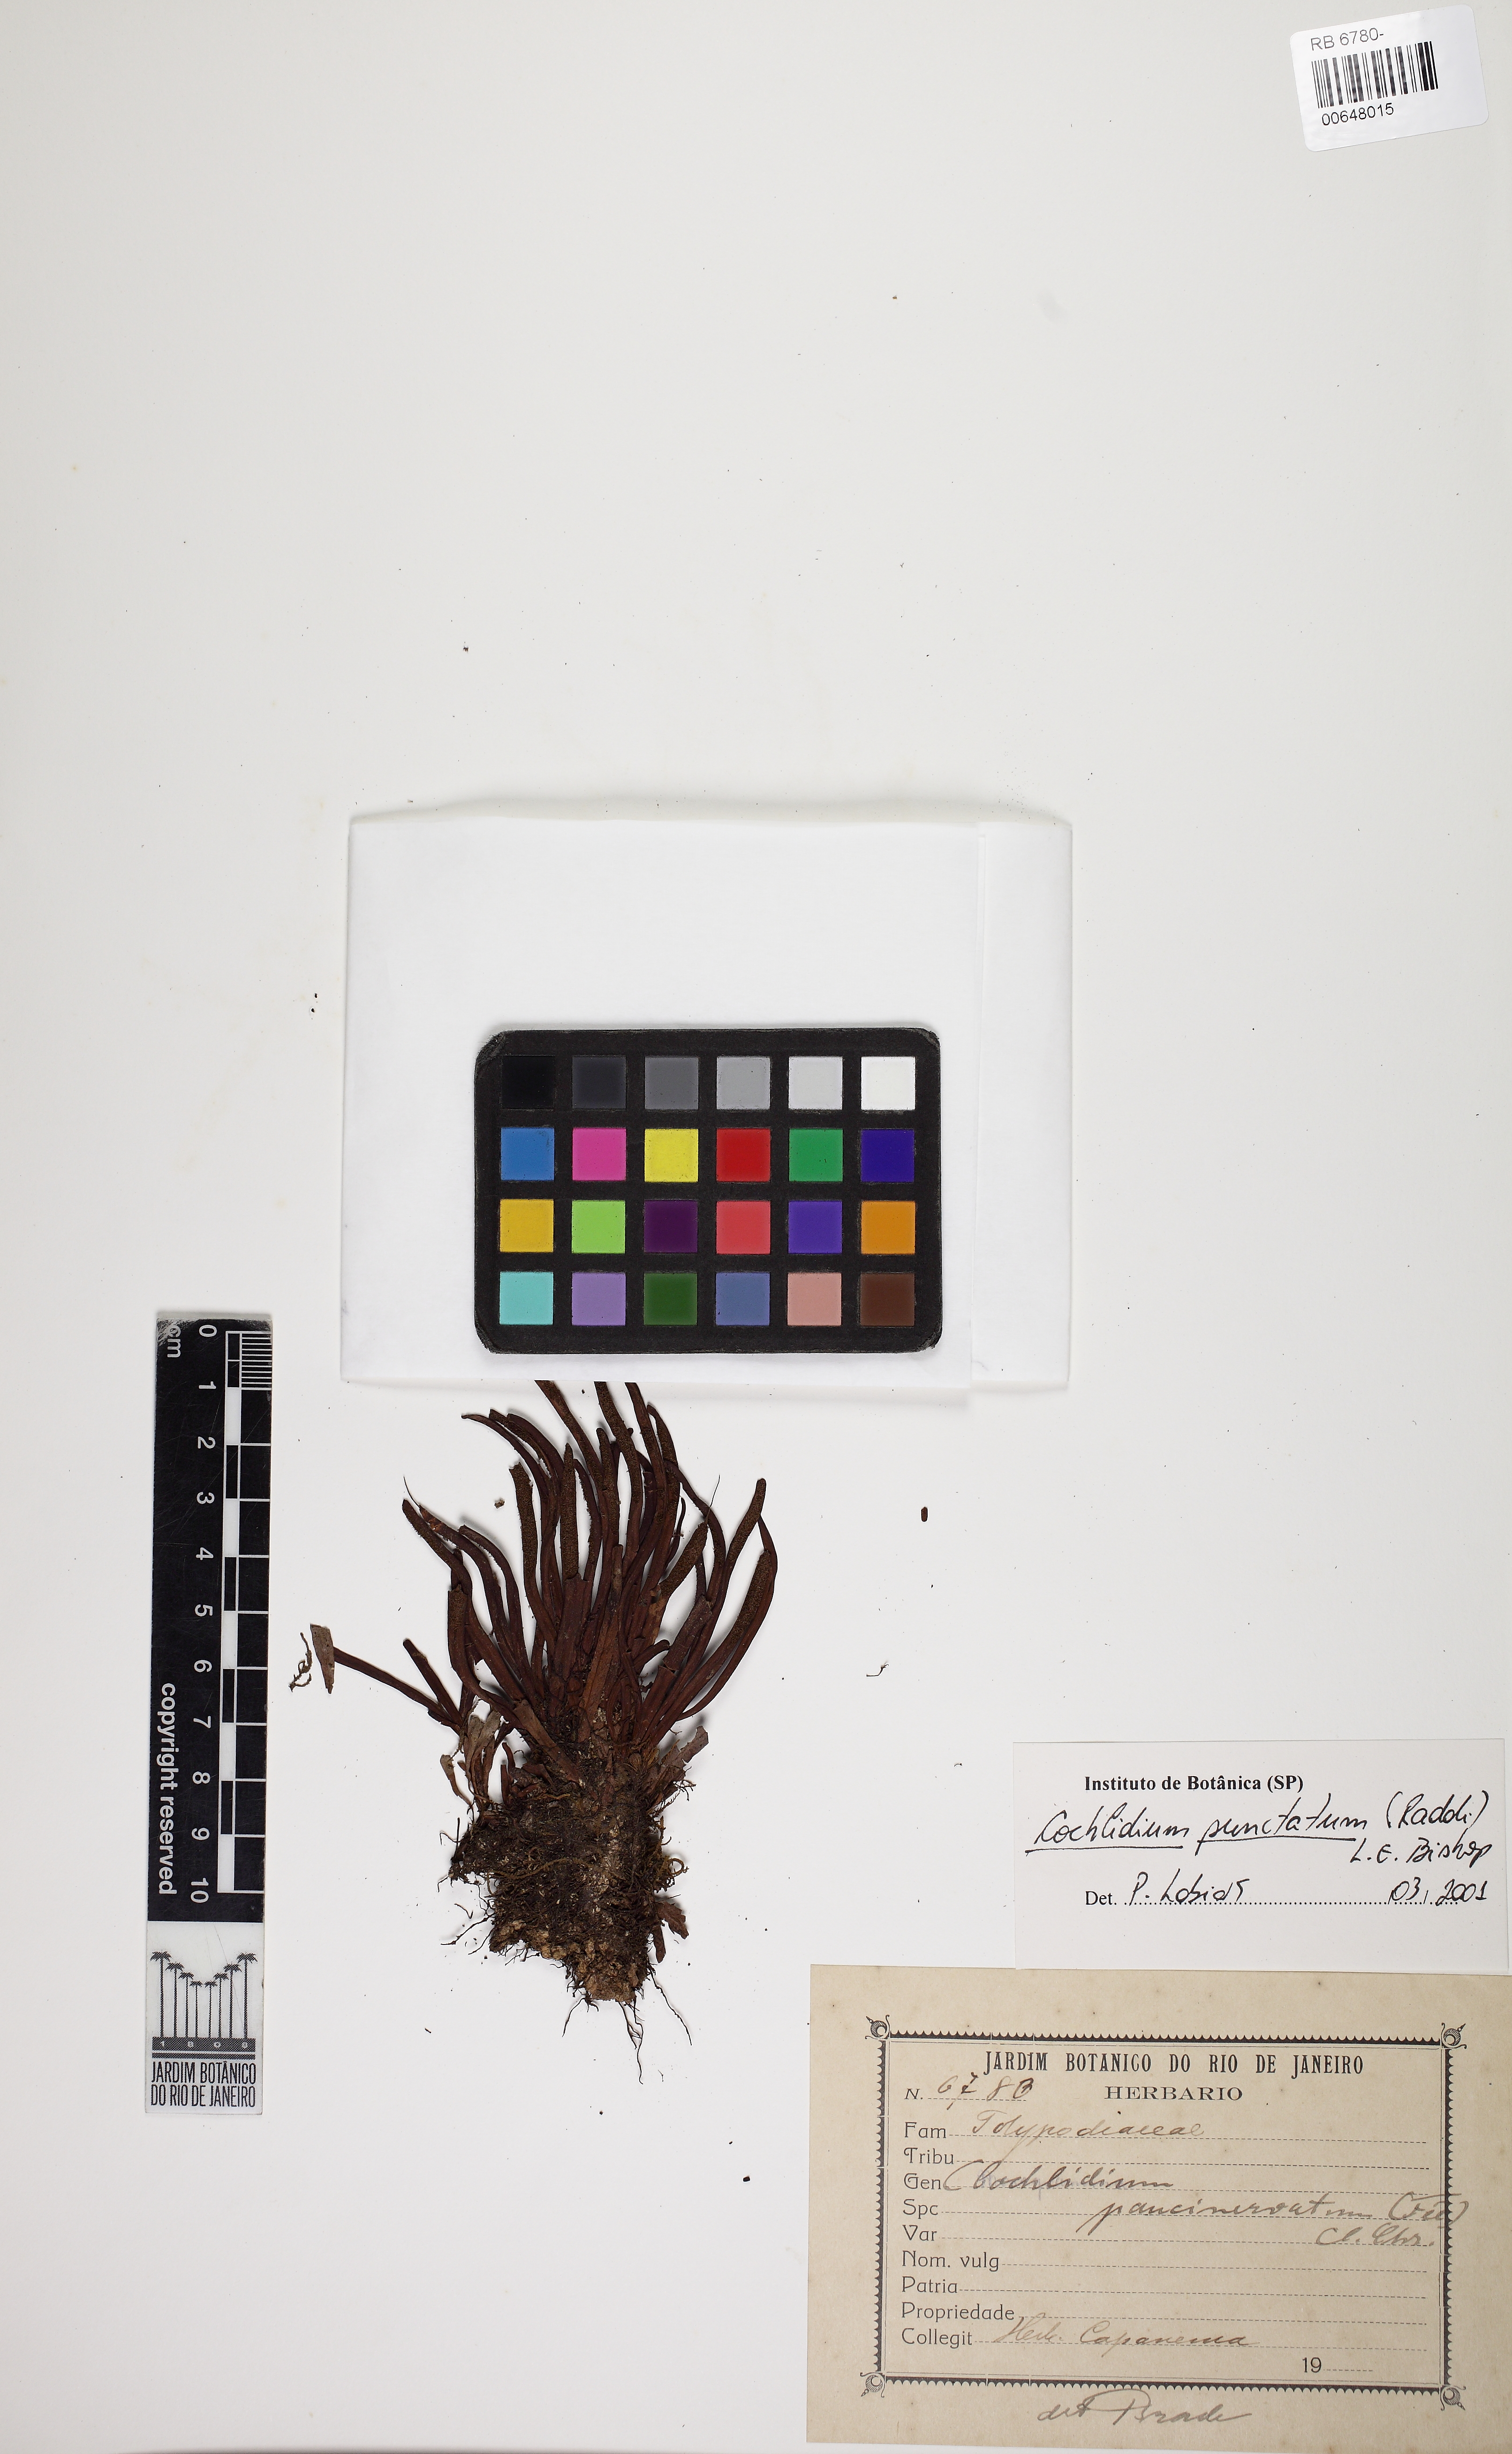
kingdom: Plantae
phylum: Tracheophyta
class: Polypodiopsida
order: Polypodiales
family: Polypodiaceae
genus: Cochlidium
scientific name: Cochlidium punctatum
